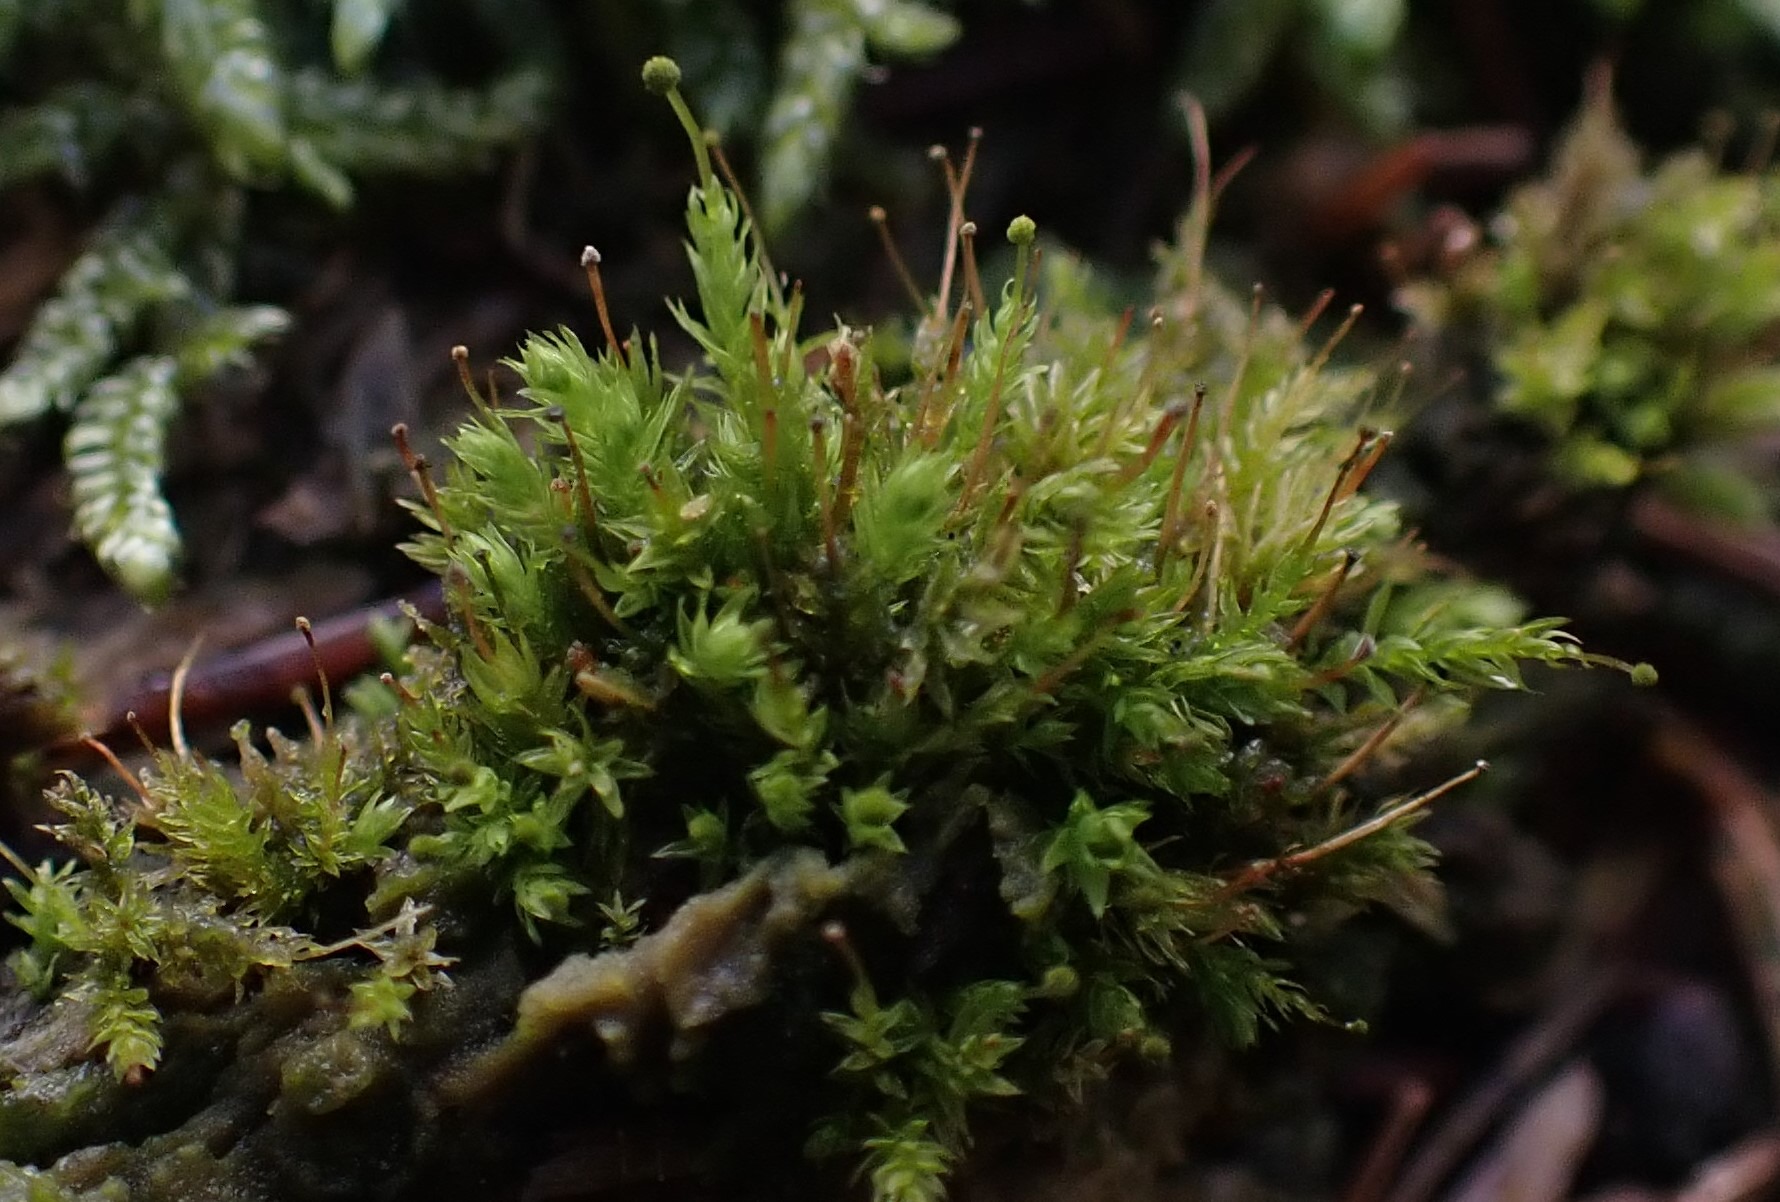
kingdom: Plantae
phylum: Bryophyta
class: Bryopsida
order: Aulacomniales
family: Aulacomniaceae
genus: Aulacomnium
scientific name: Aulacomnium androgynum
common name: Kugle-filtmos
